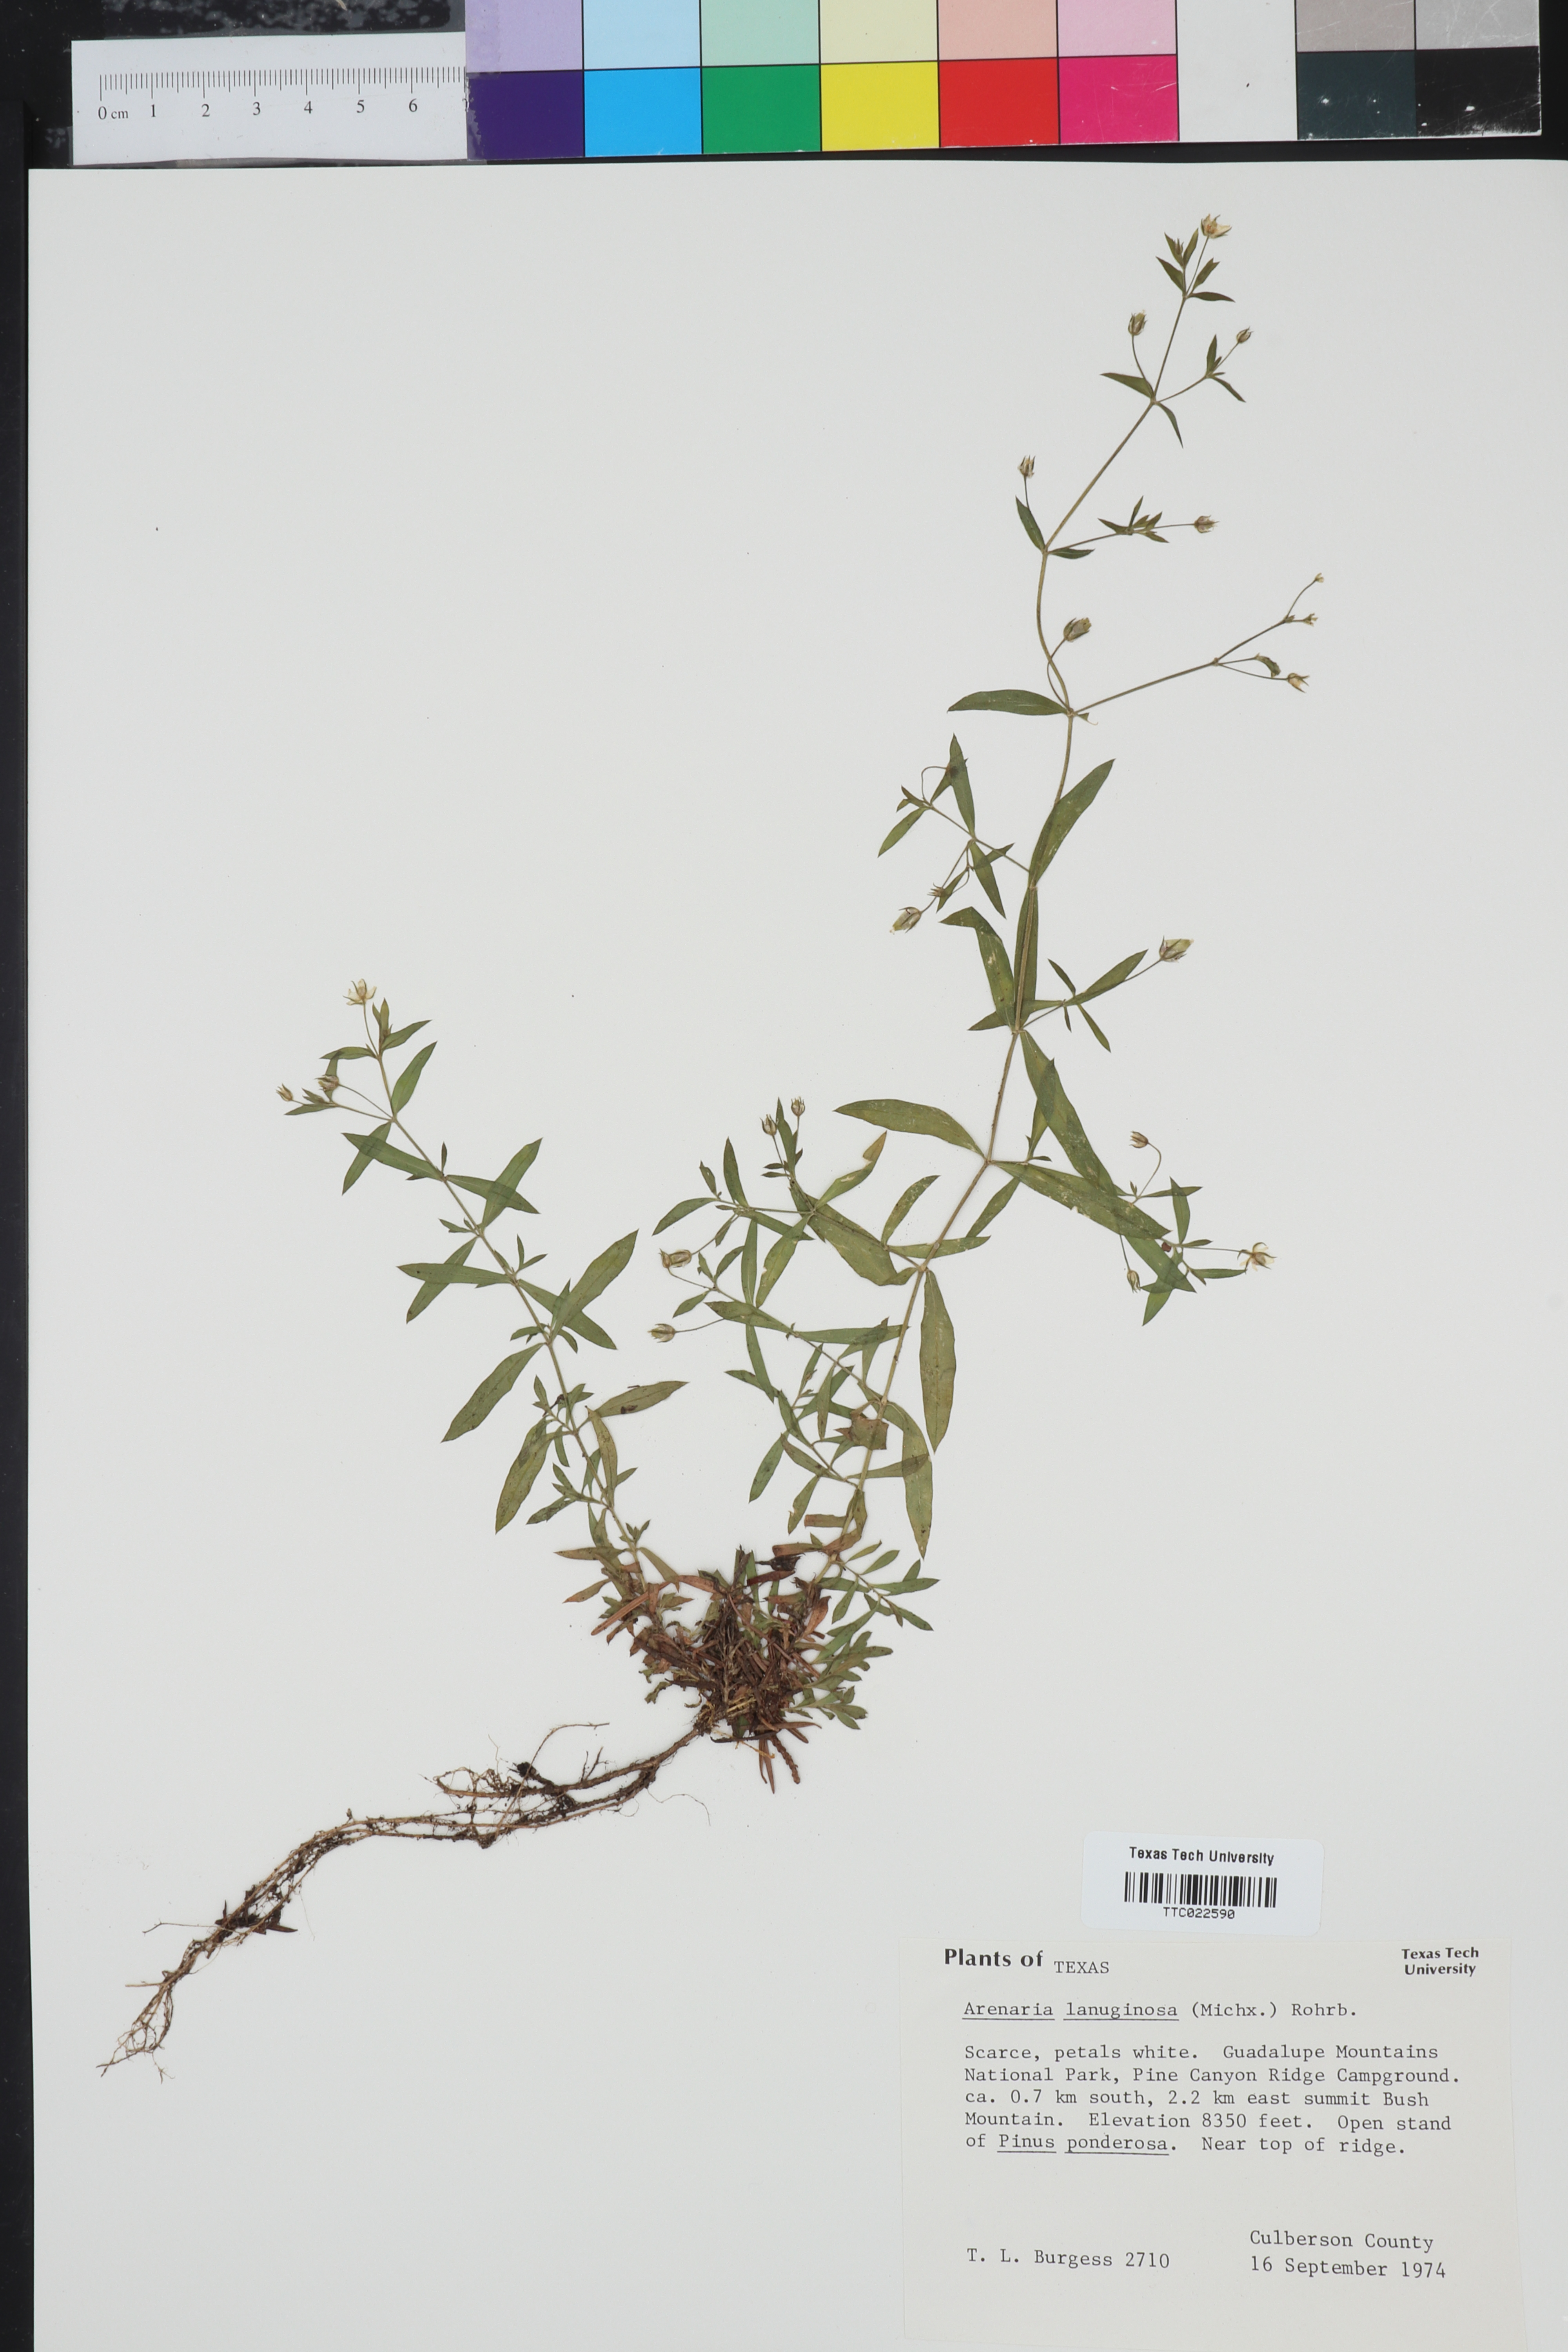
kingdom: Plantae
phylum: Tracheophyta
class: Magnoliopsida
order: Caryophyllales
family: Caryophyllaceae
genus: Arenaria
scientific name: Arenaria lanuginosa
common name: Spread sandwort
